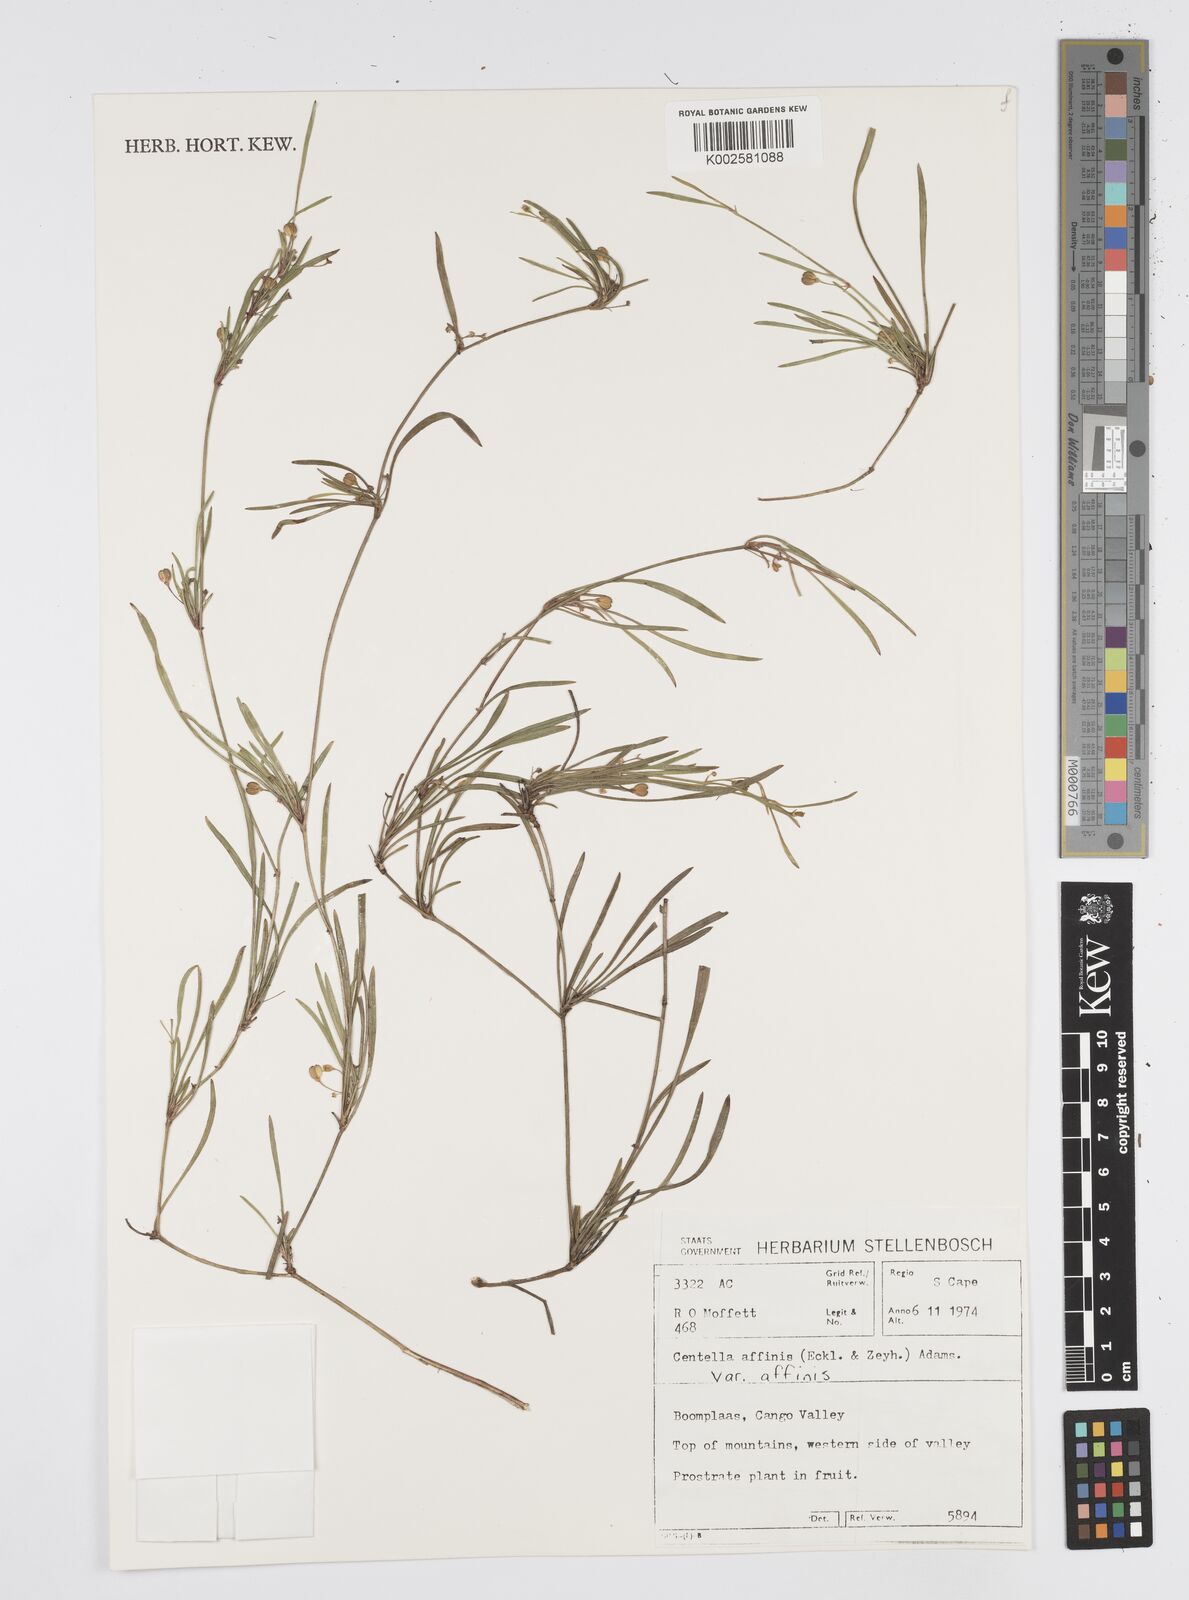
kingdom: Plantae
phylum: Tracheophyta
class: Magnoliopsida
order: Apiales
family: Apiaceae
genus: Centella
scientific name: Centella affinis
